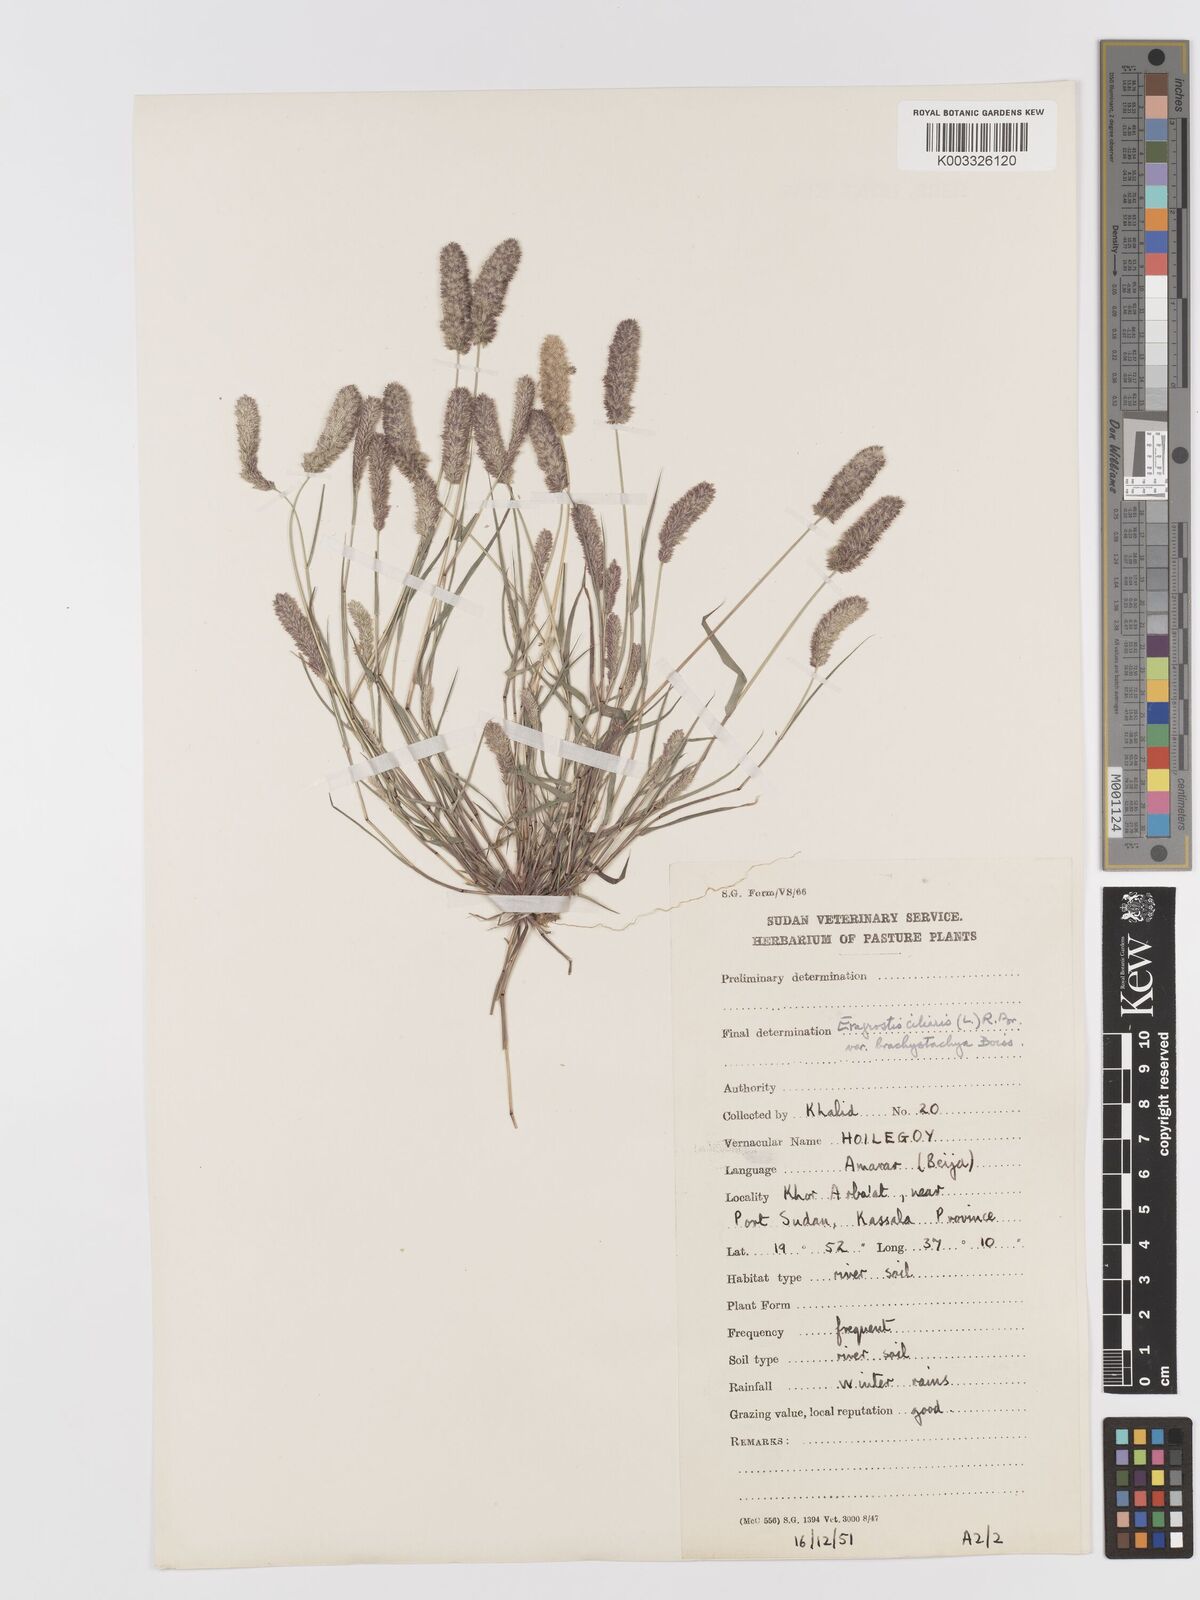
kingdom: Plantae
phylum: Tracheophyta
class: Liliopsida
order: Poales
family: Poaceae
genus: Eragrostis
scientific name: Eragrostis ciliaris
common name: Gophertail lovegrass
